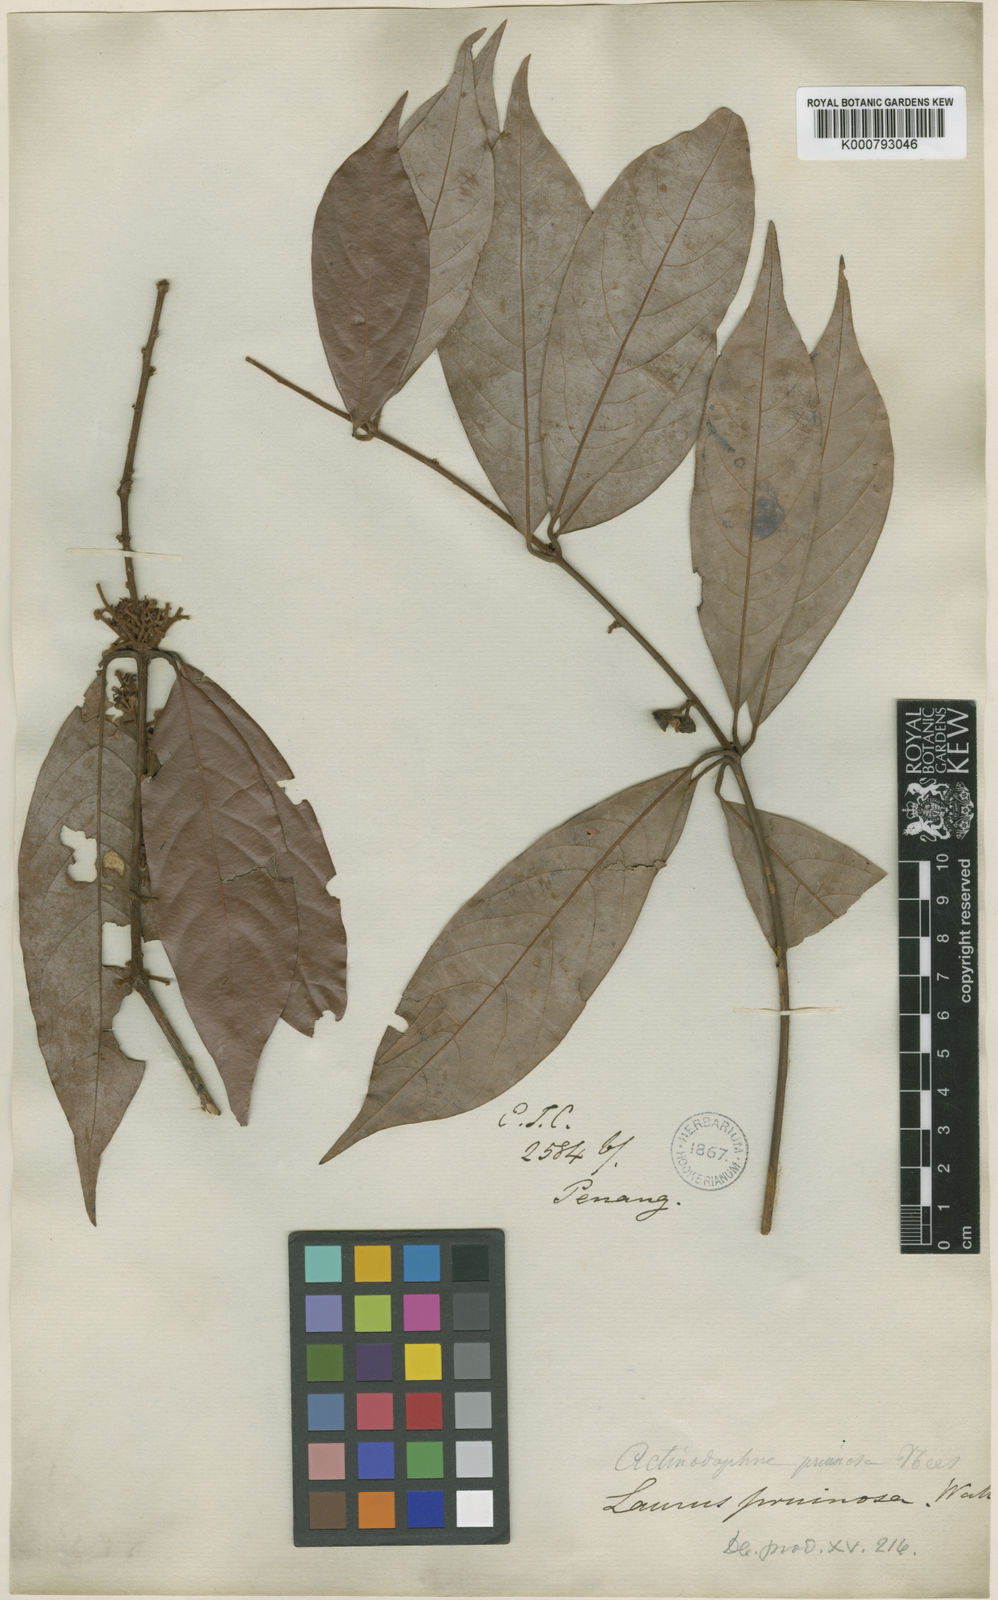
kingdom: Plantae
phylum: Tracheophyta
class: Magnoliopsida
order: Laurales
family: Lauraceae
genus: Actinodaphne
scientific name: Actinodaphne pruinosa
